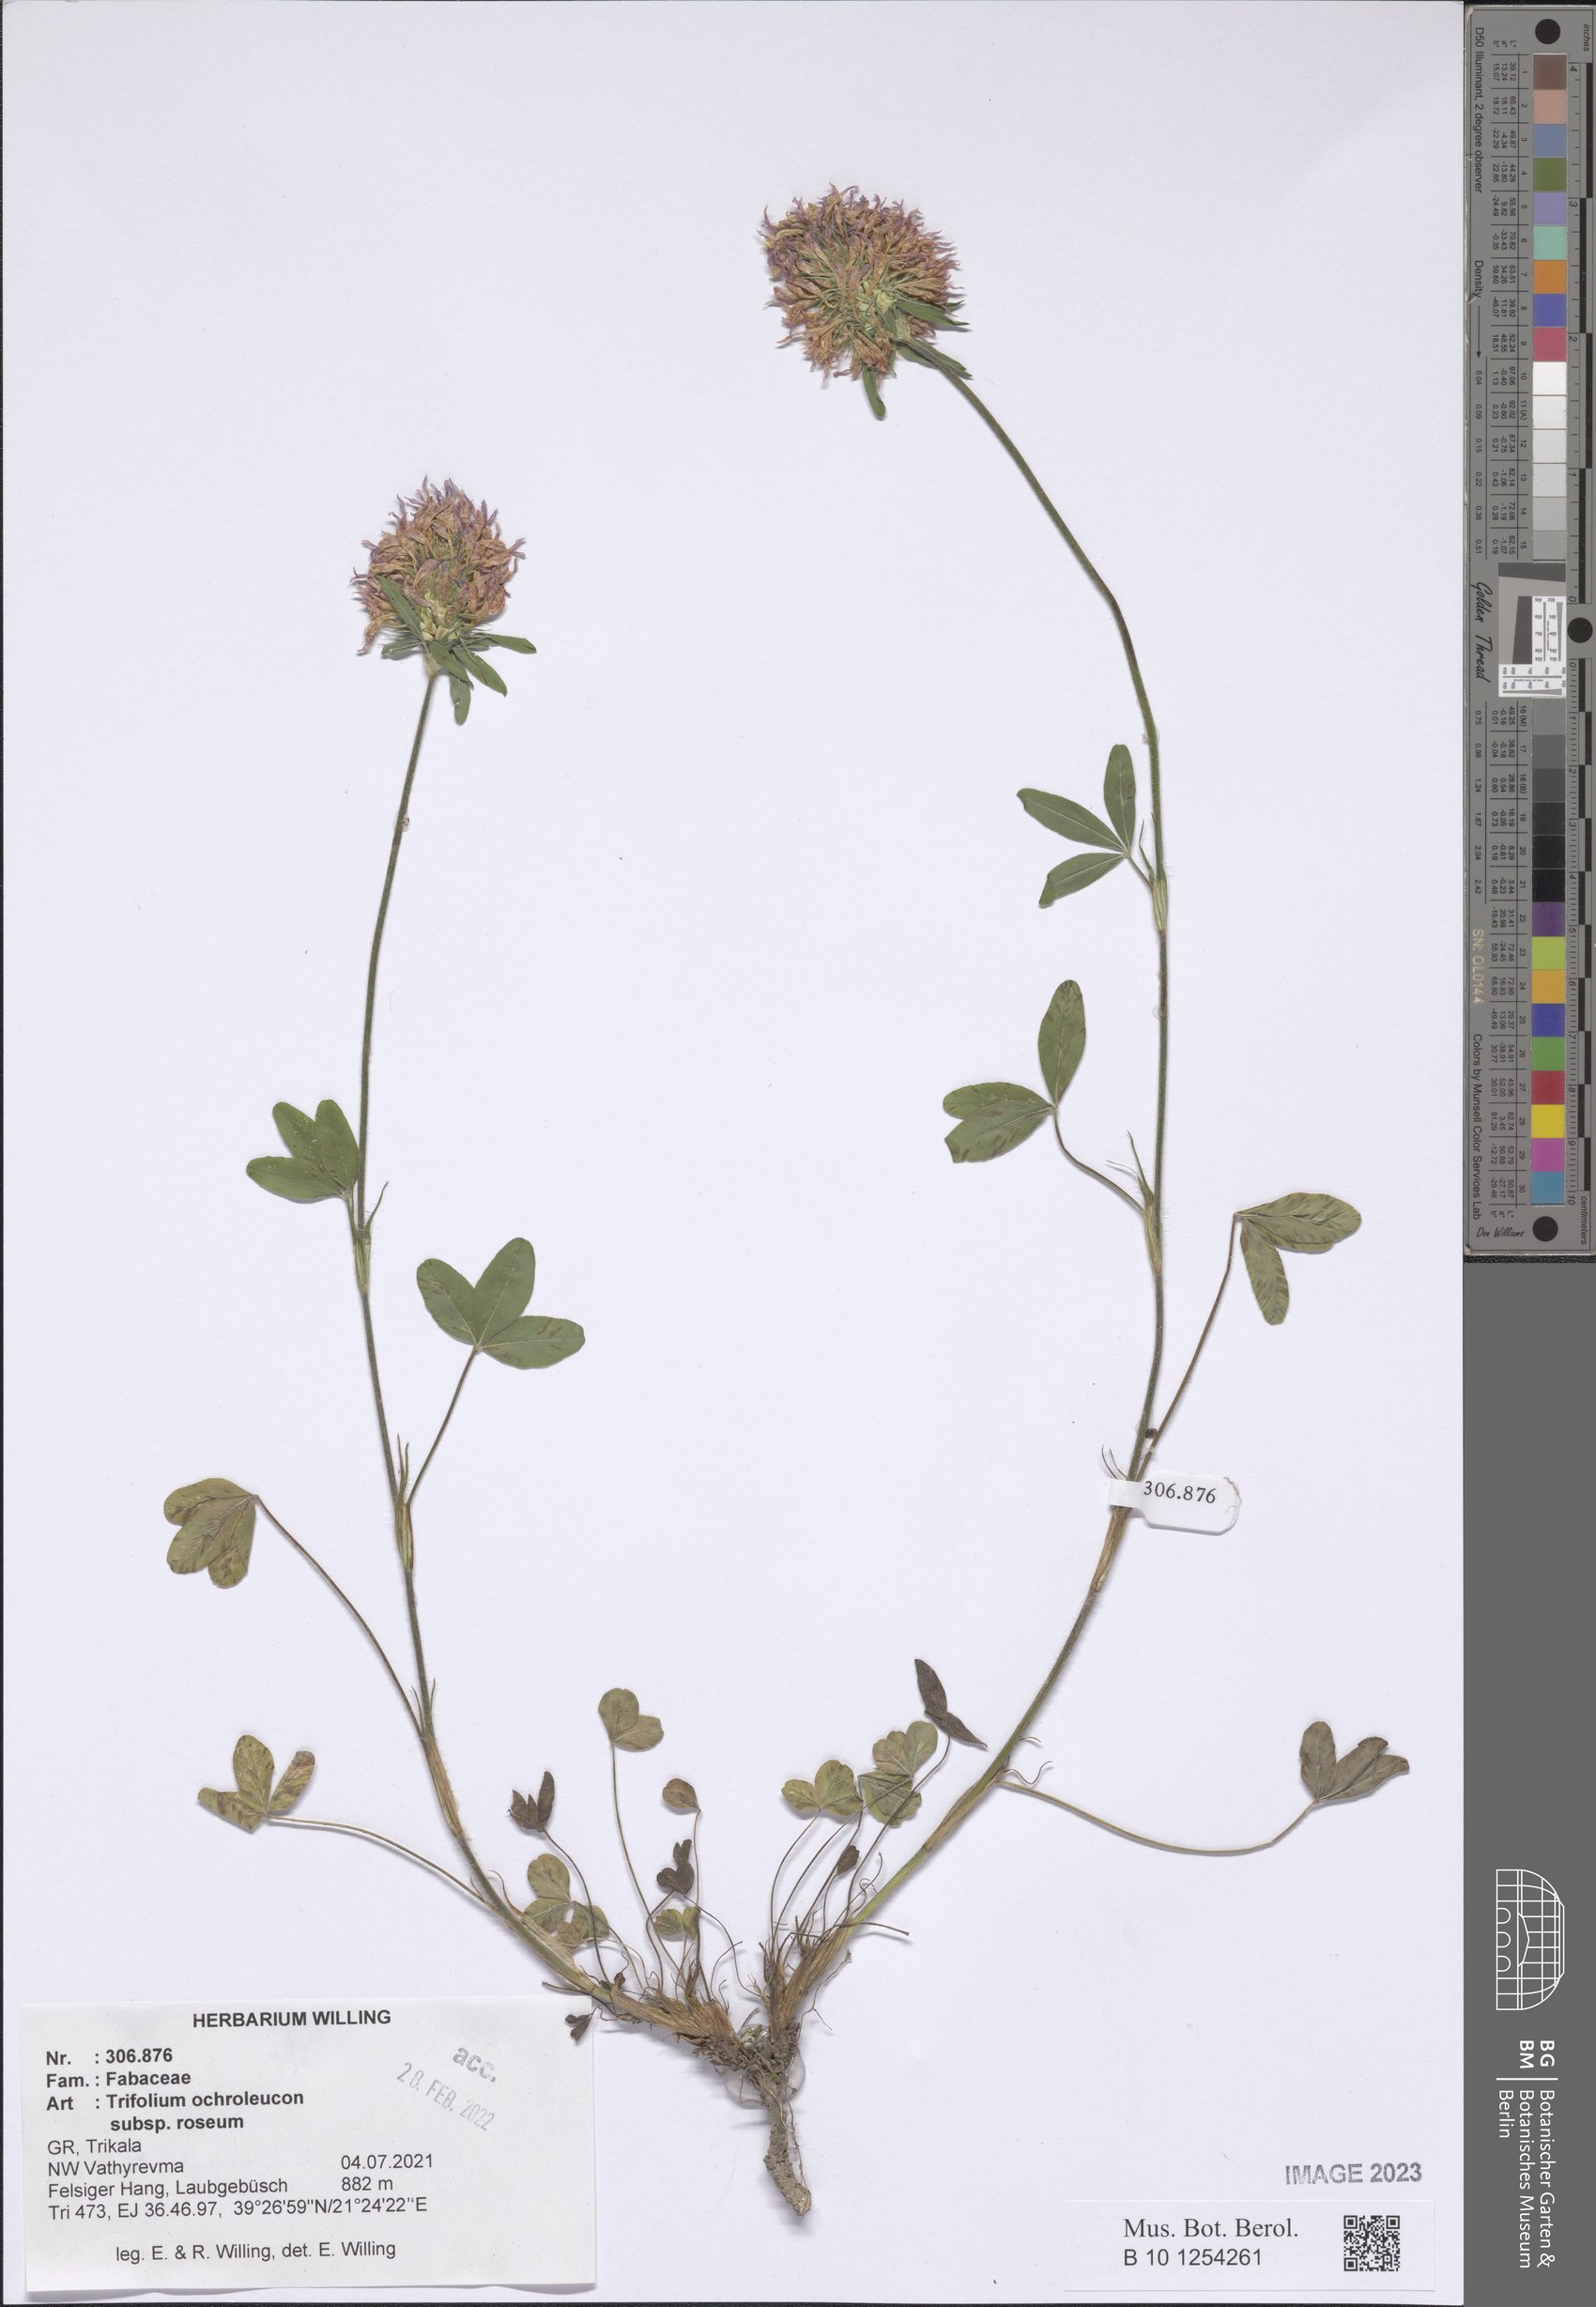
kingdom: Plantae
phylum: Tracheophyta
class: Magnoliopsida
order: Fabales
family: Fabaceae
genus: Trifolium
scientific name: Trifolium ochroleucon
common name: Sulphur clover
